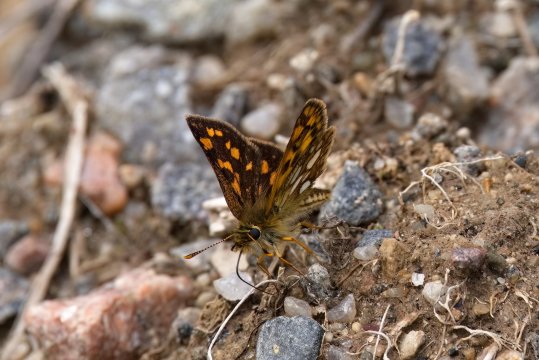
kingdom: Animalia
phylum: Arthropoda
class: Insecta
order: Lepidoptera
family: Hesperiidae
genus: Carterocephalus
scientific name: Carterocephalus mandan
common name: Arctic Skipperling
